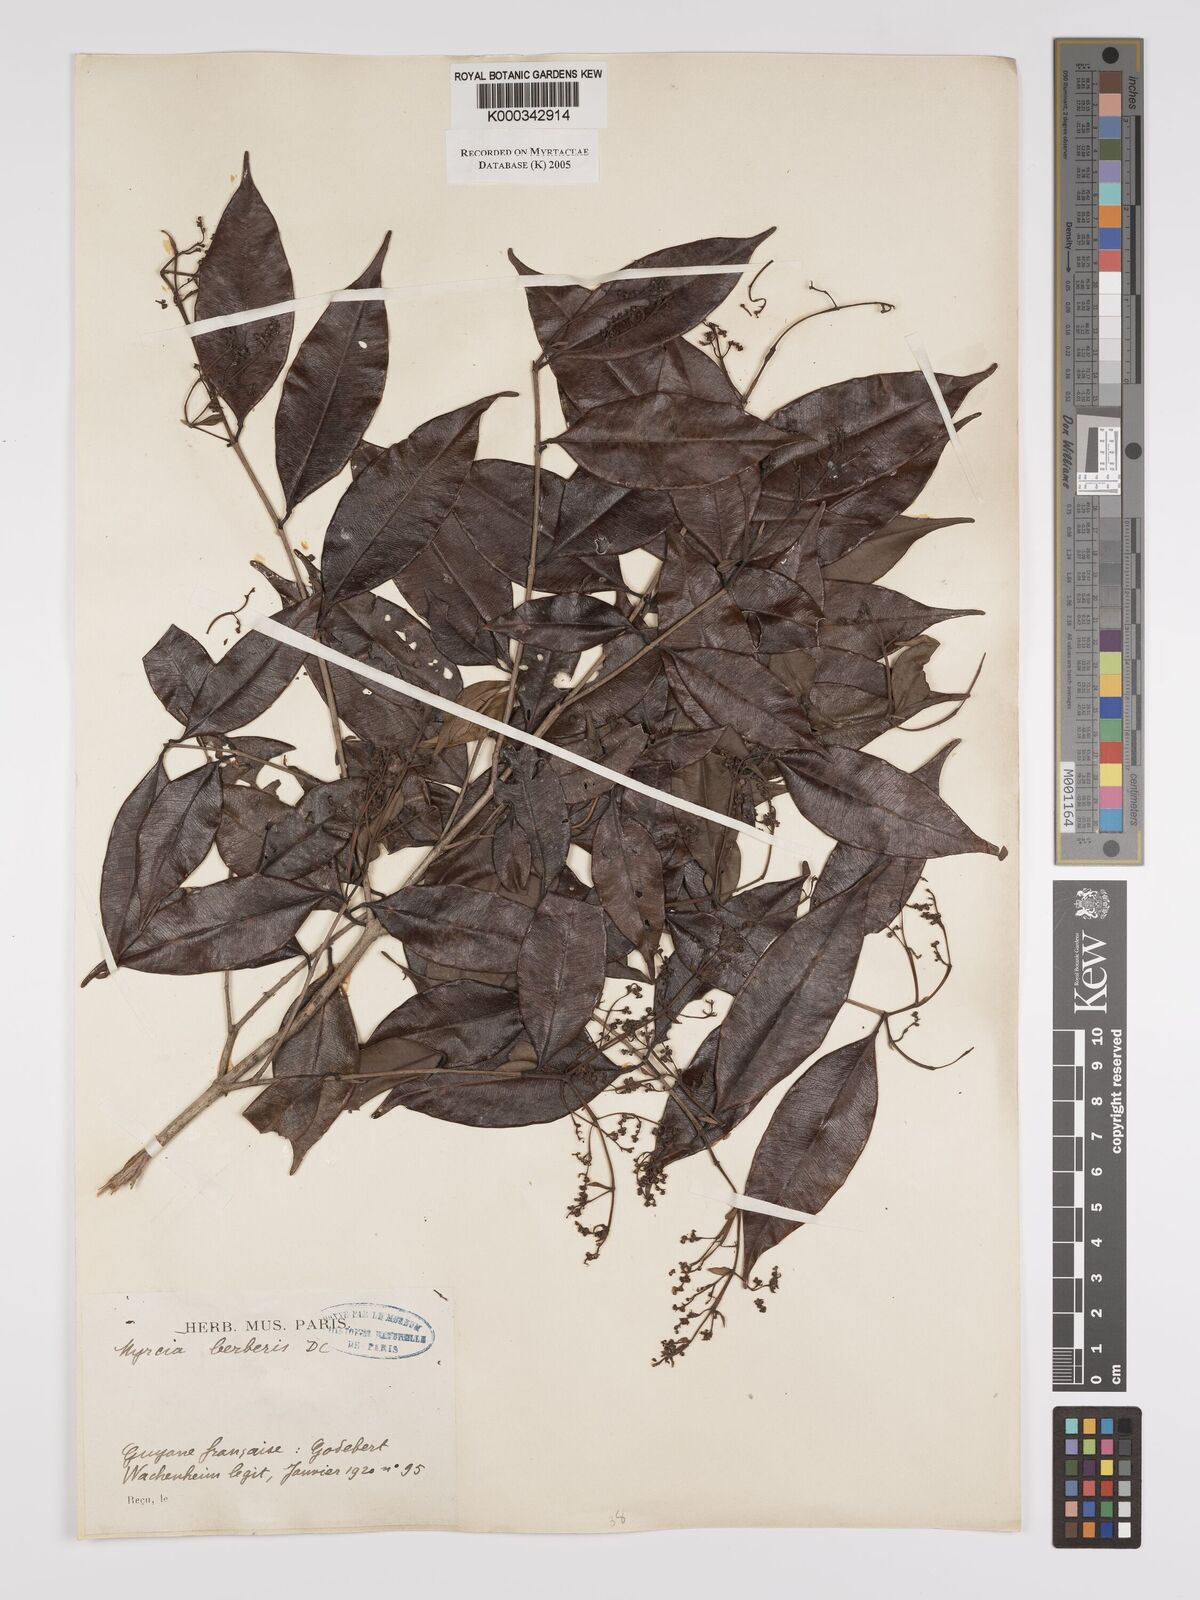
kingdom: Plantae
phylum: Tracheophyta
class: Magnoliopsida
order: Myrtales
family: Myrtaceae
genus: Myrcia
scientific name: Myrcia splendens
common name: Surinam cherry
